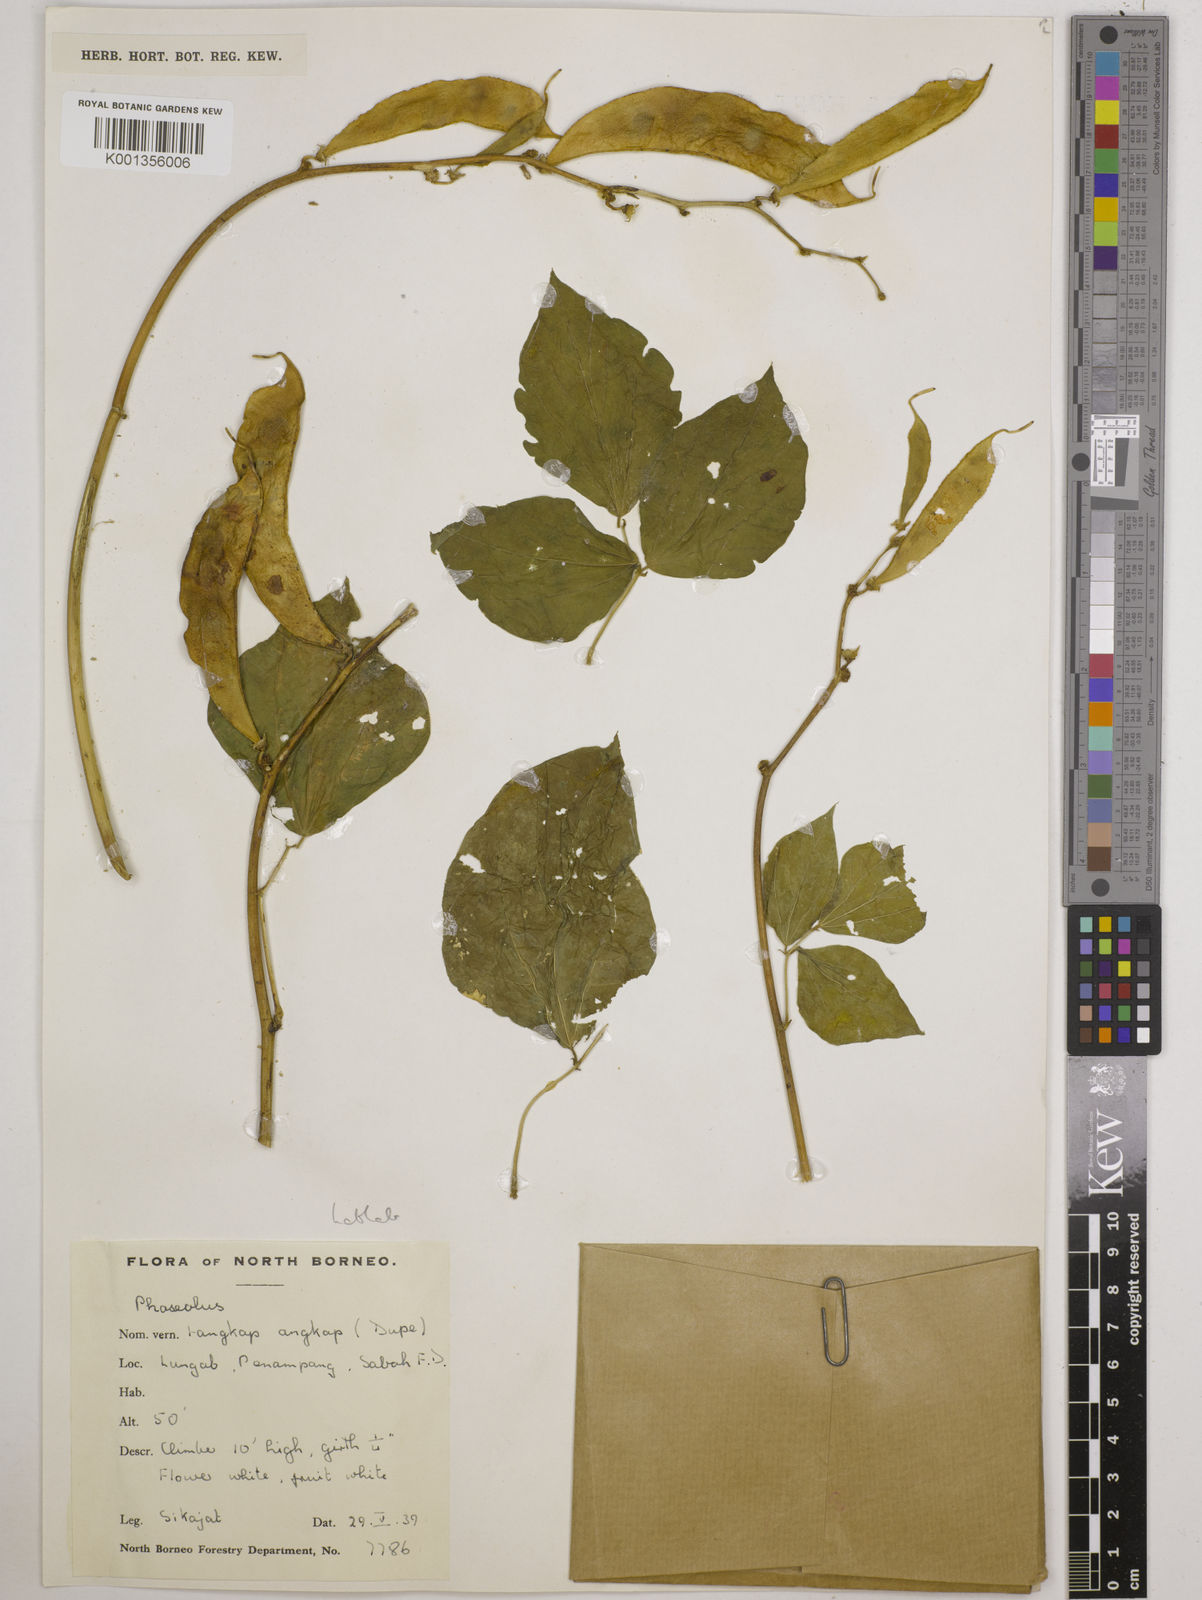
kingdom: Plantae
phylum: Tracheophyta
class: Magnoliopsida
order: Fabales
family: Fabaceae
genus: Lablab
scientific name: Lablab purpureus
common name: Lablab-bean
